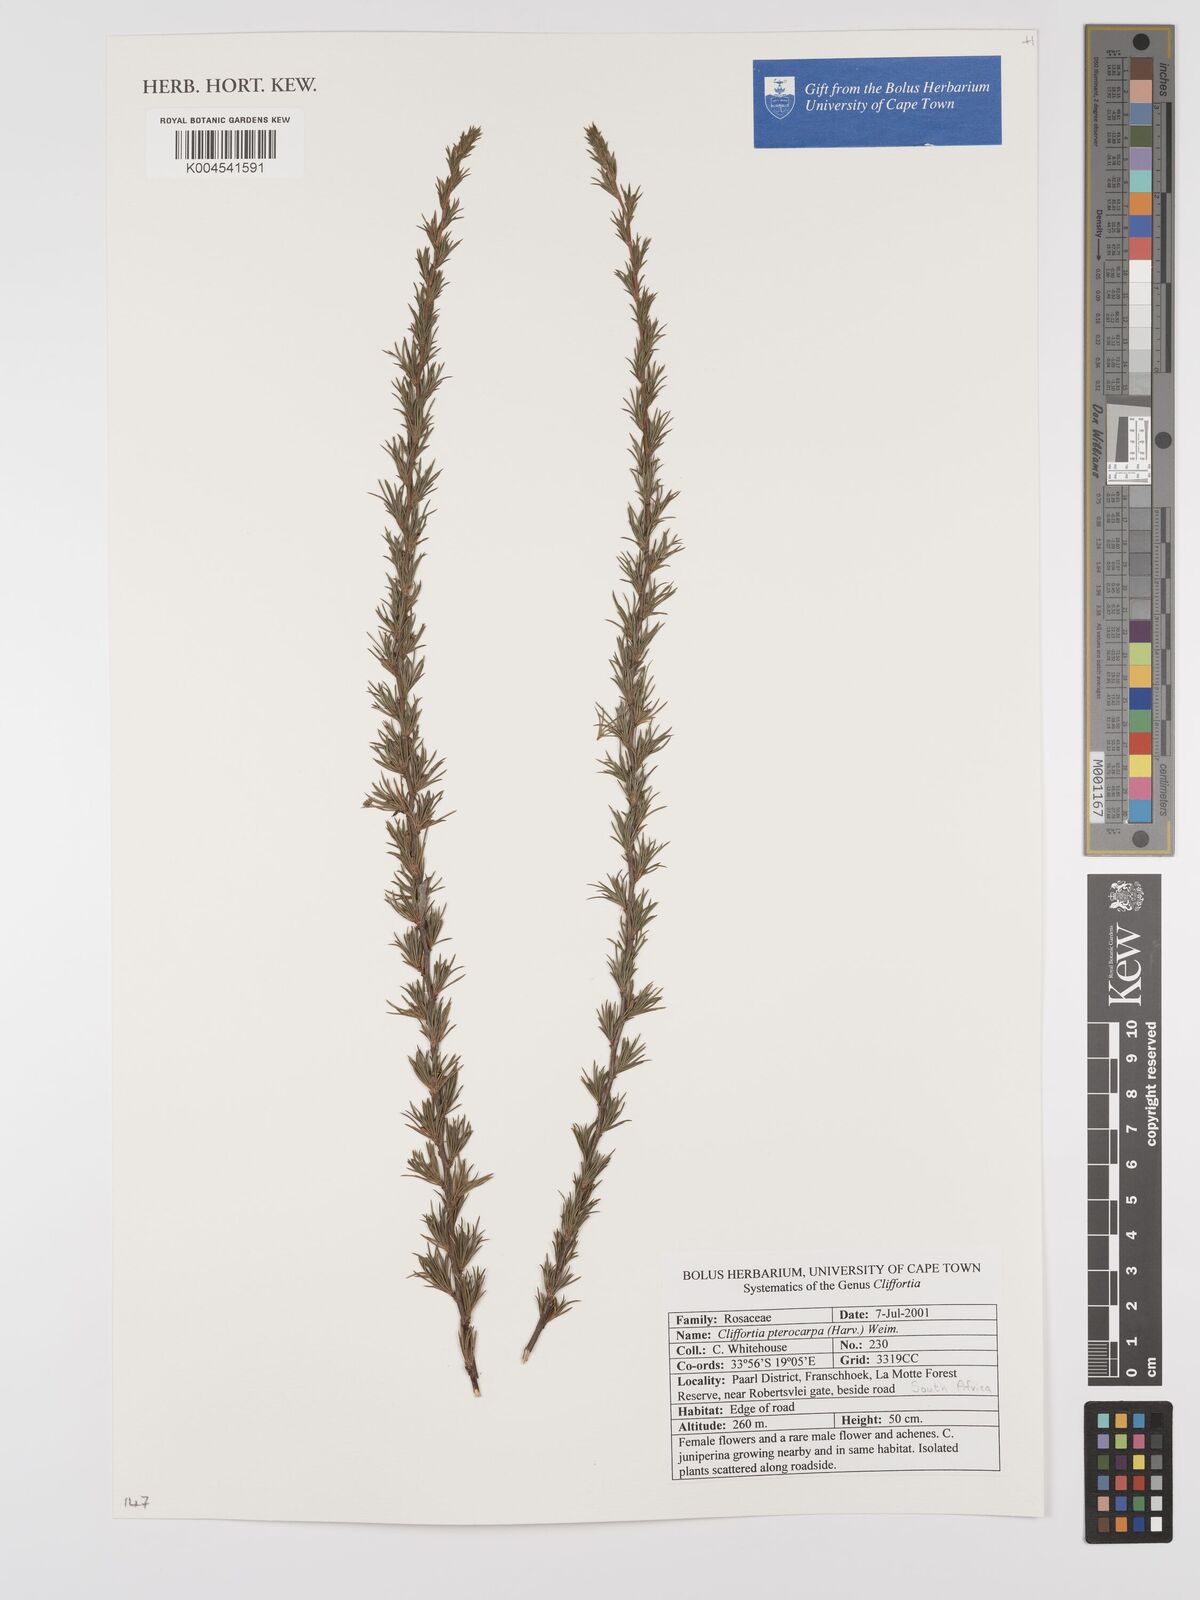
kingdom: Plantae
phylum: Tracheophyta
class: Magnoliopsida
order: Rosales
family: Rosaceae
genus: Cliffortia
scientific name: Cliffortia pterocarpa
